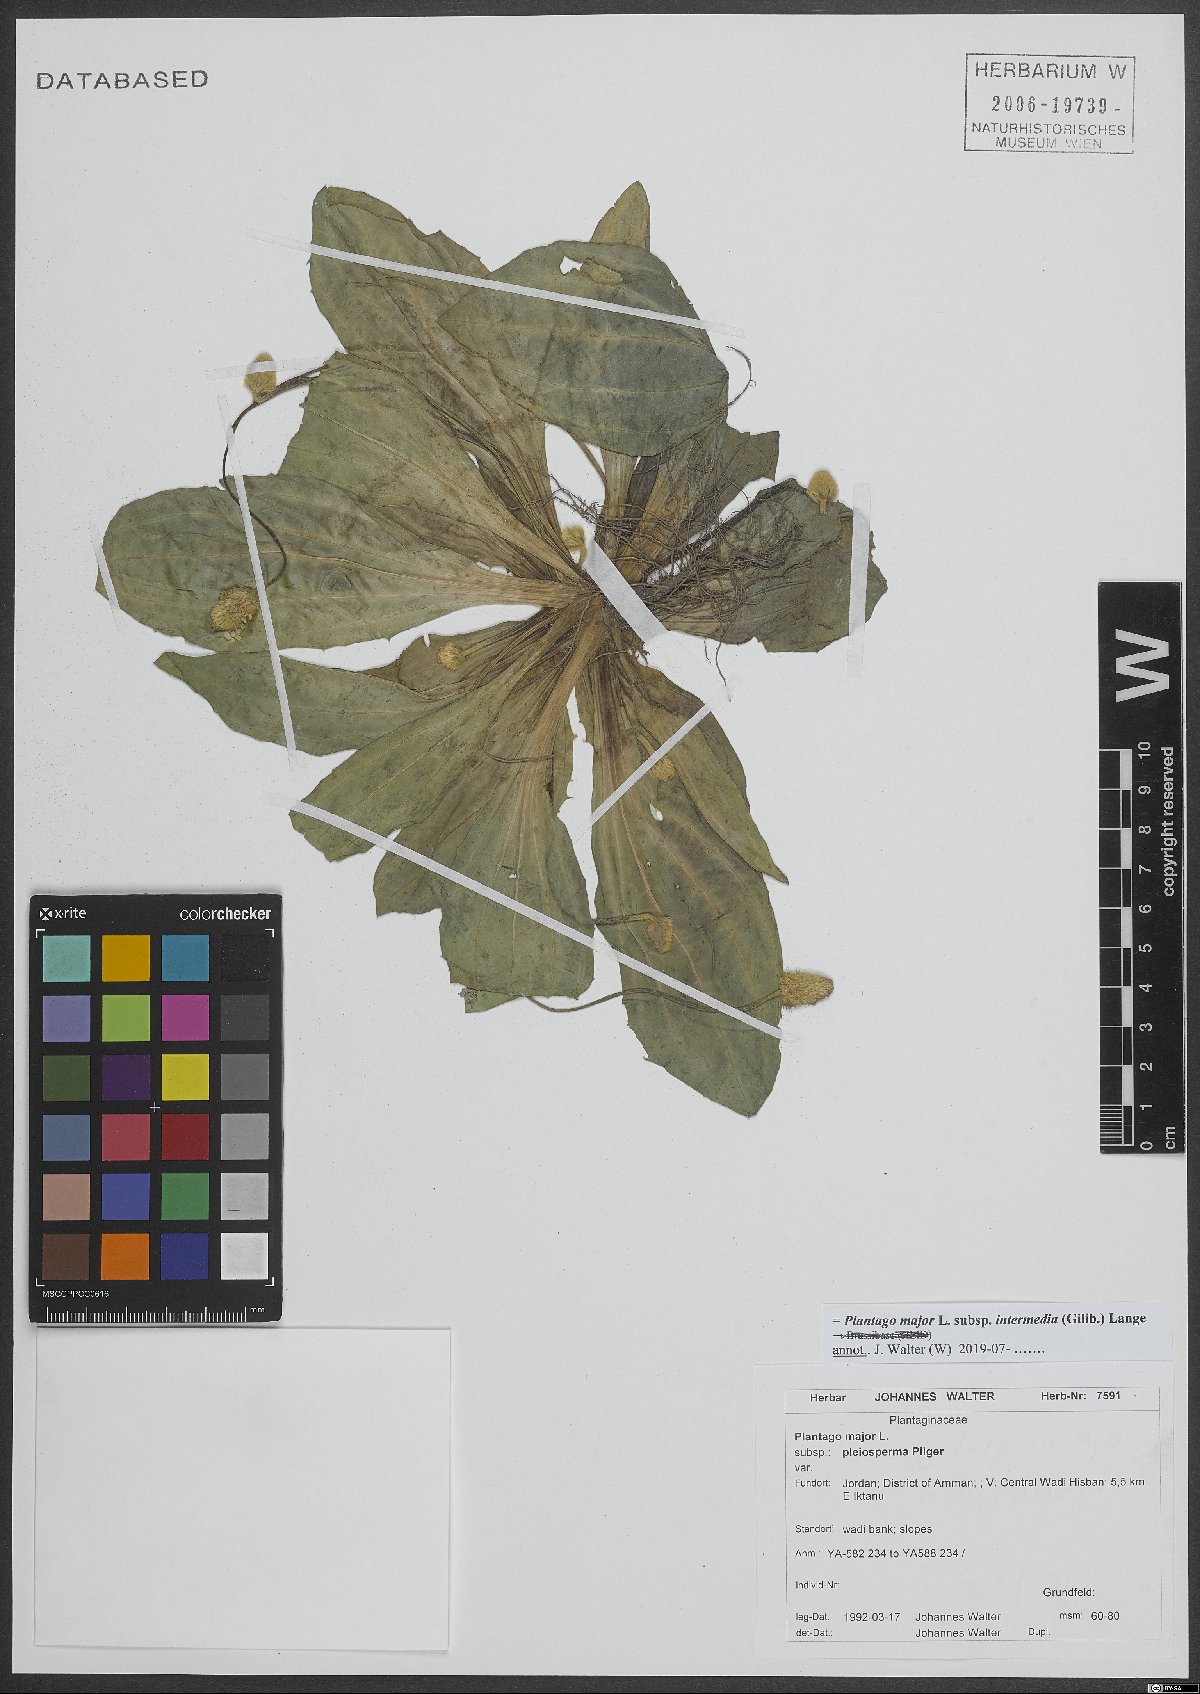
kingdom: Plantae
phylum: Tracheophyta
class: Magnoliopsida
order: Lamiales
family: Plantaginaceae
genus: Plantago
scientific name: Plantago uliginosa
